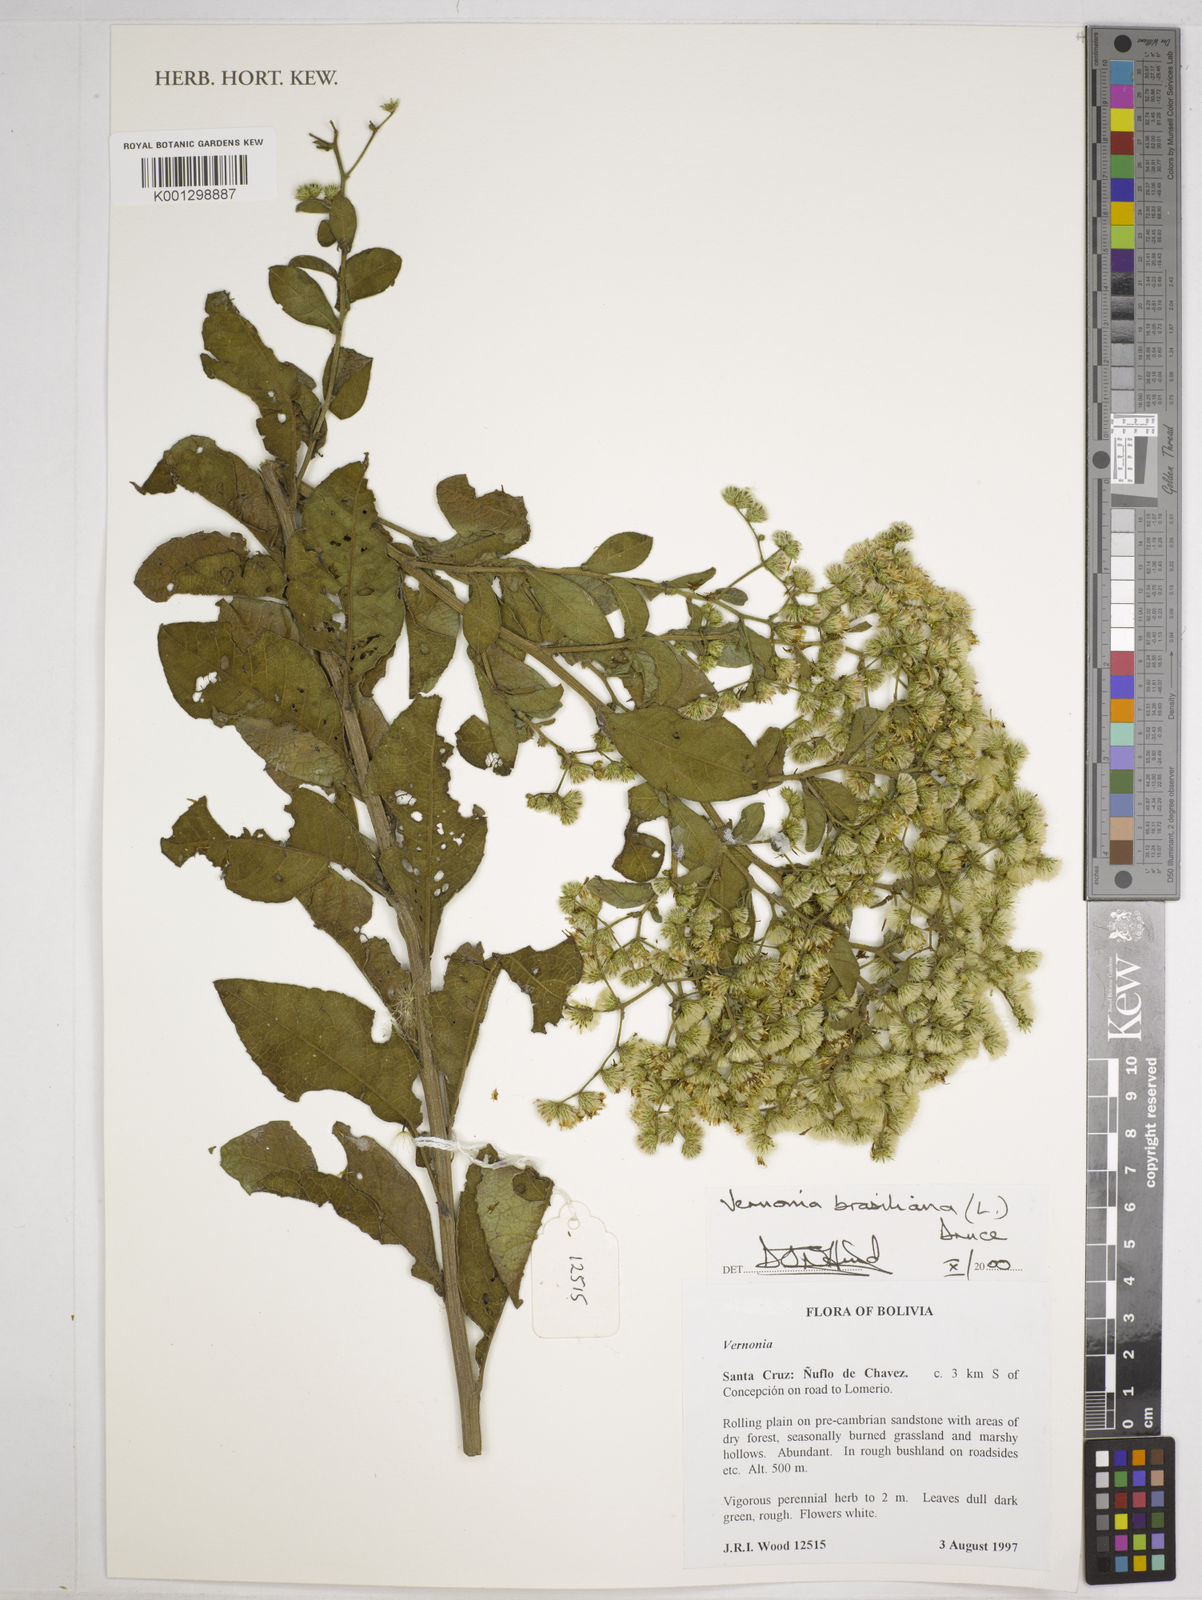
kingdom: Plantae
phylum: Tracheophyta
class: Magnoliopsida
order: Asterales
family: Asteraceae
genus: Vernonanthura
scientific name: Vernonanthura brasiliana
